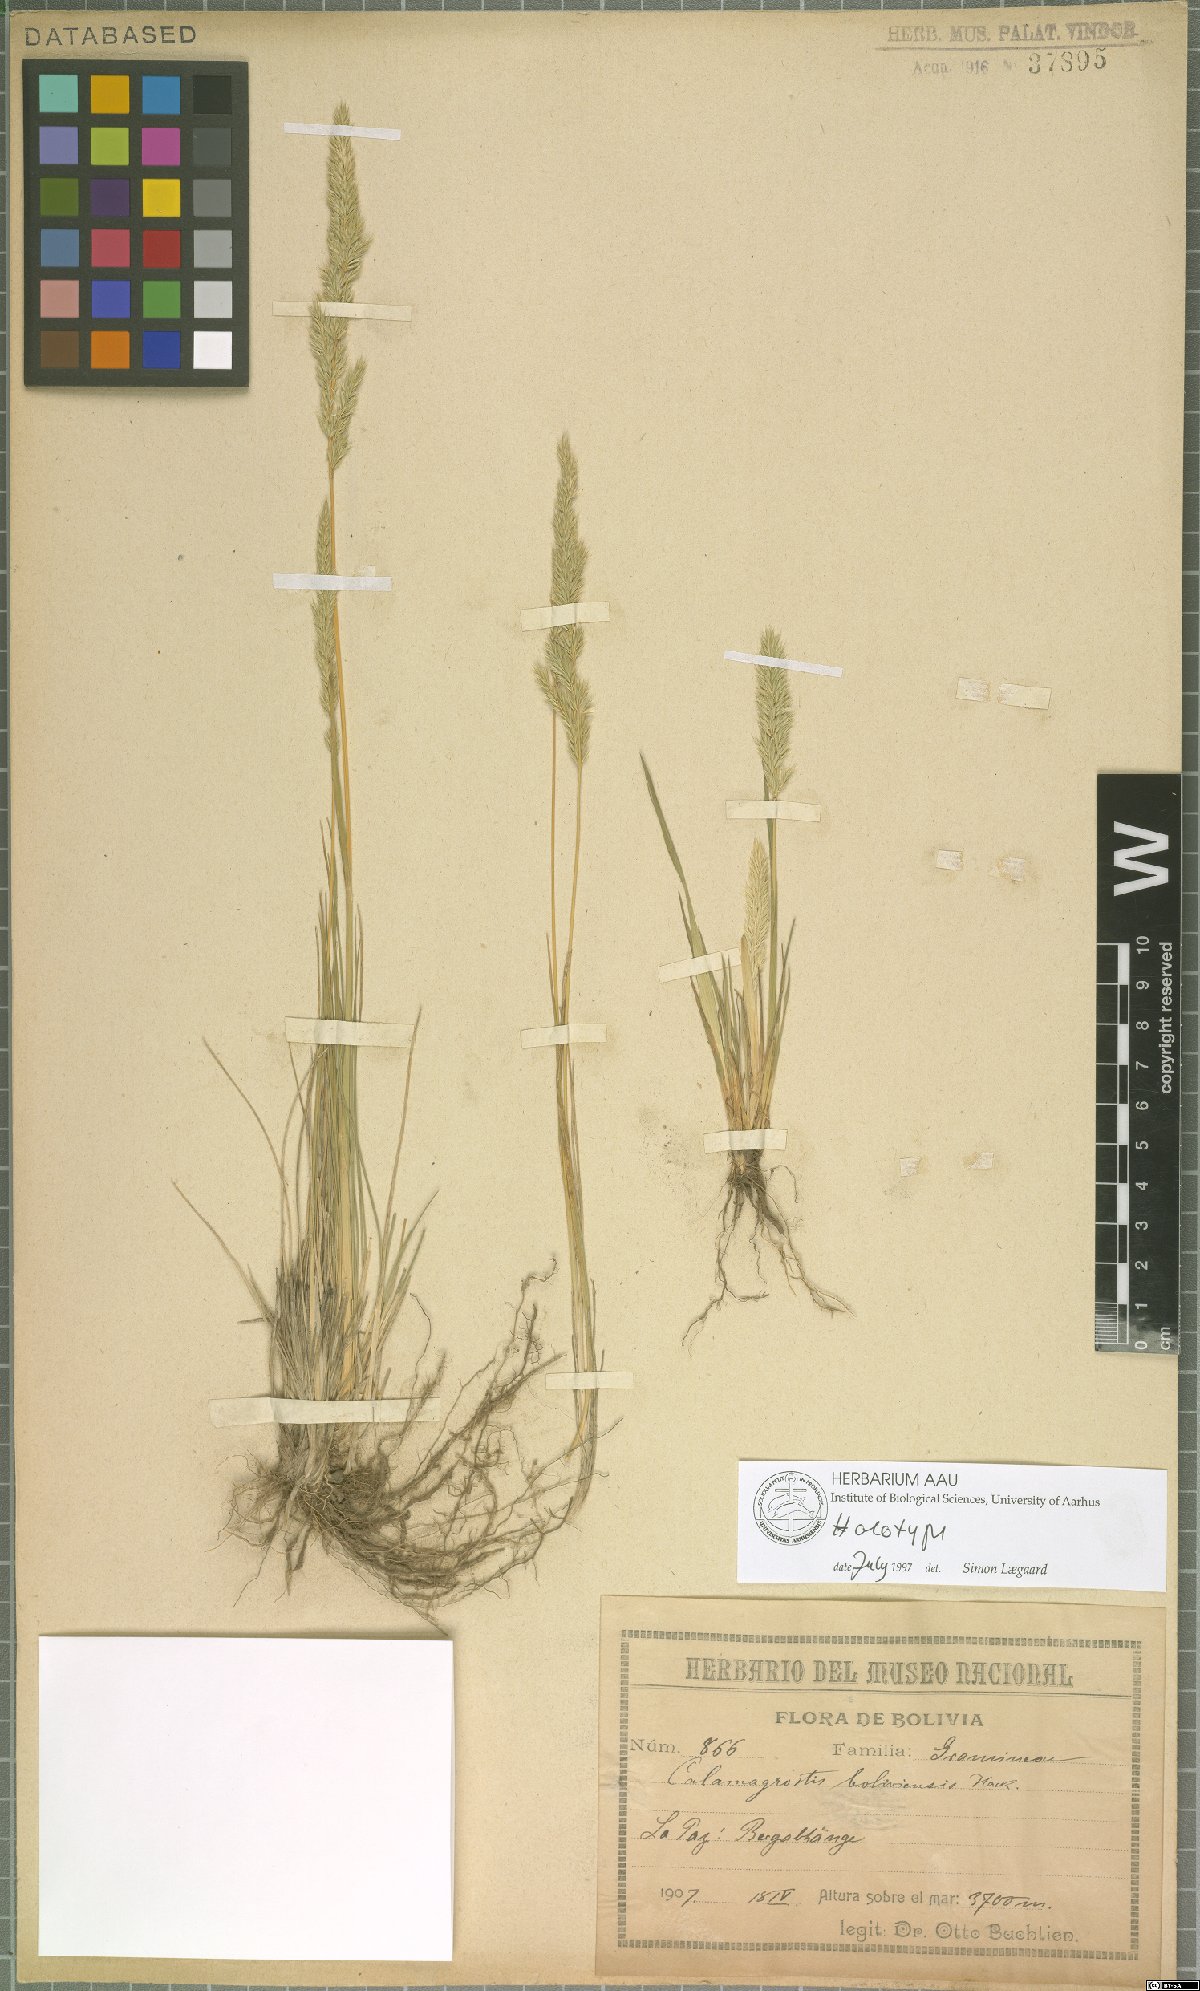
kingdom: Plantae
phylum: Tracheophyta
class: Liliopsida
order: Poales
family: Poaceae
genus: Cinnagrostis
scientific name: Cinnagrostis boliviensis
